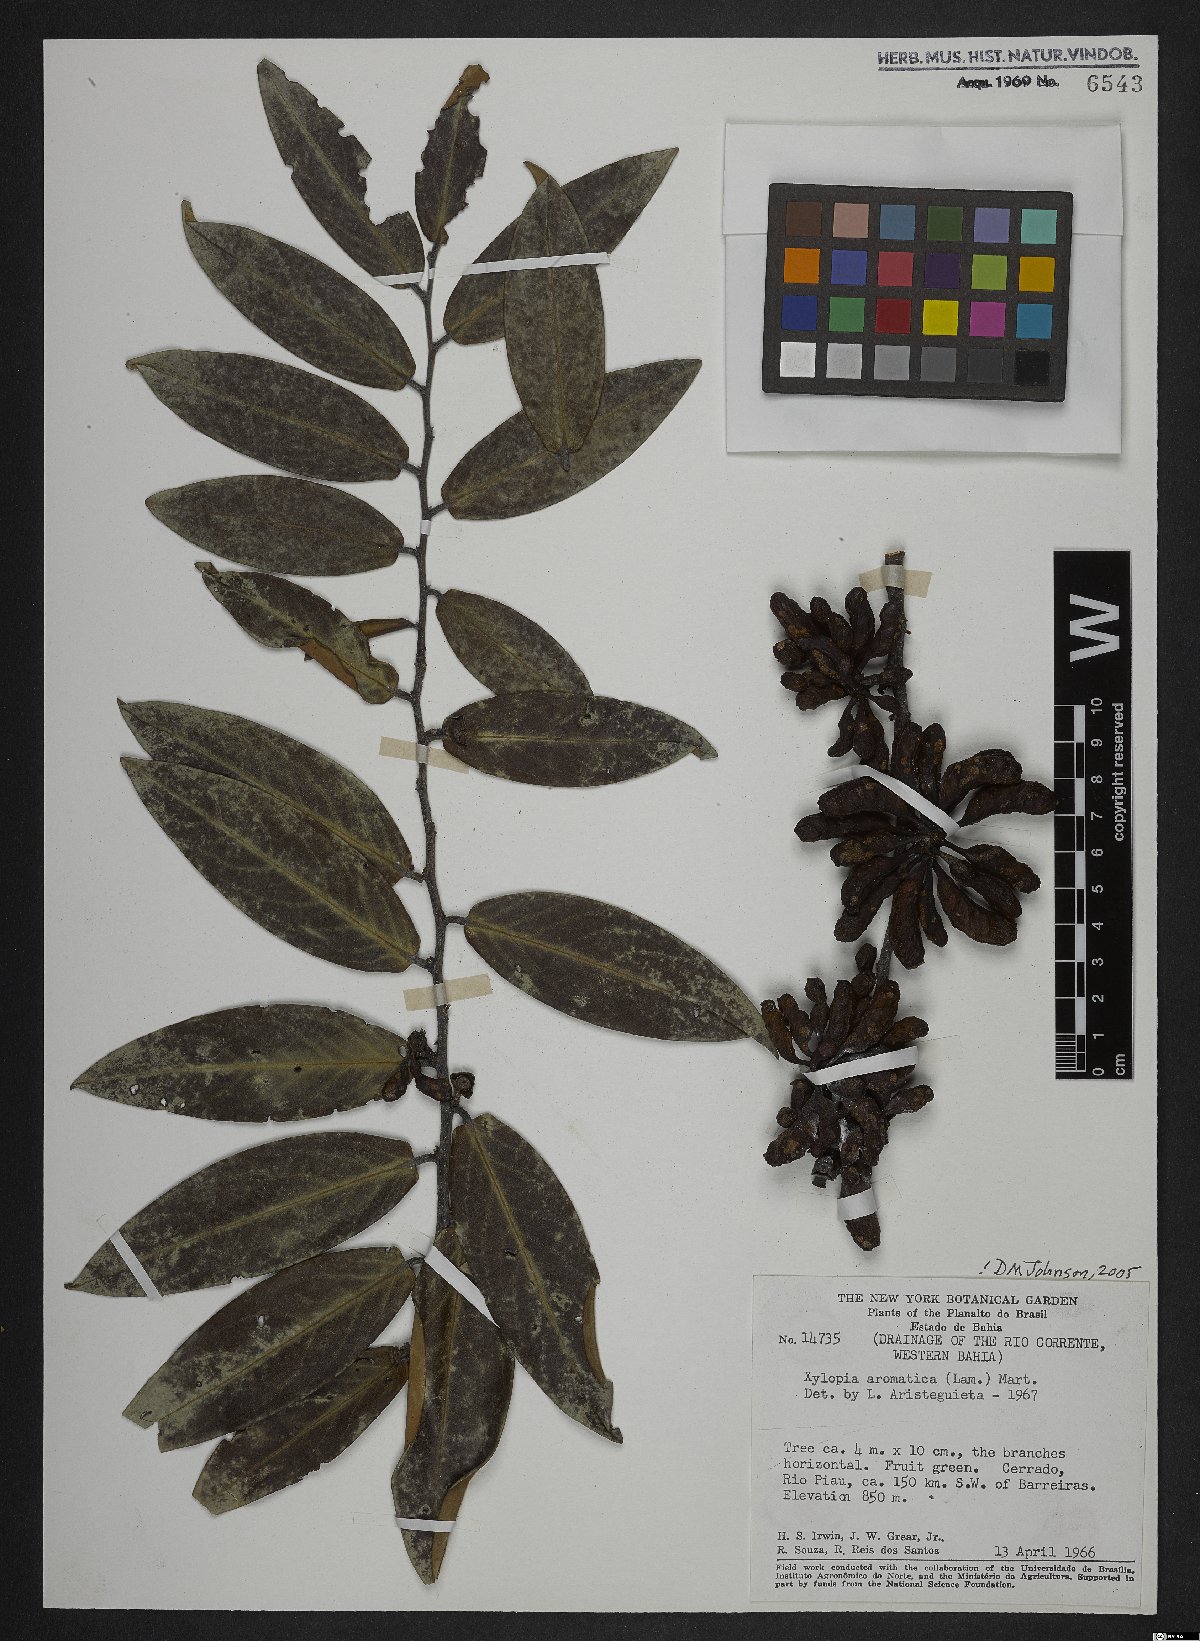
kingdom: Plantae
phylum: Tracheophyta
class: Magnoliopsida
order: Magnoliales
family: Annonaceae
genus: Xylopia
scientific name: Xylopia aromatica
